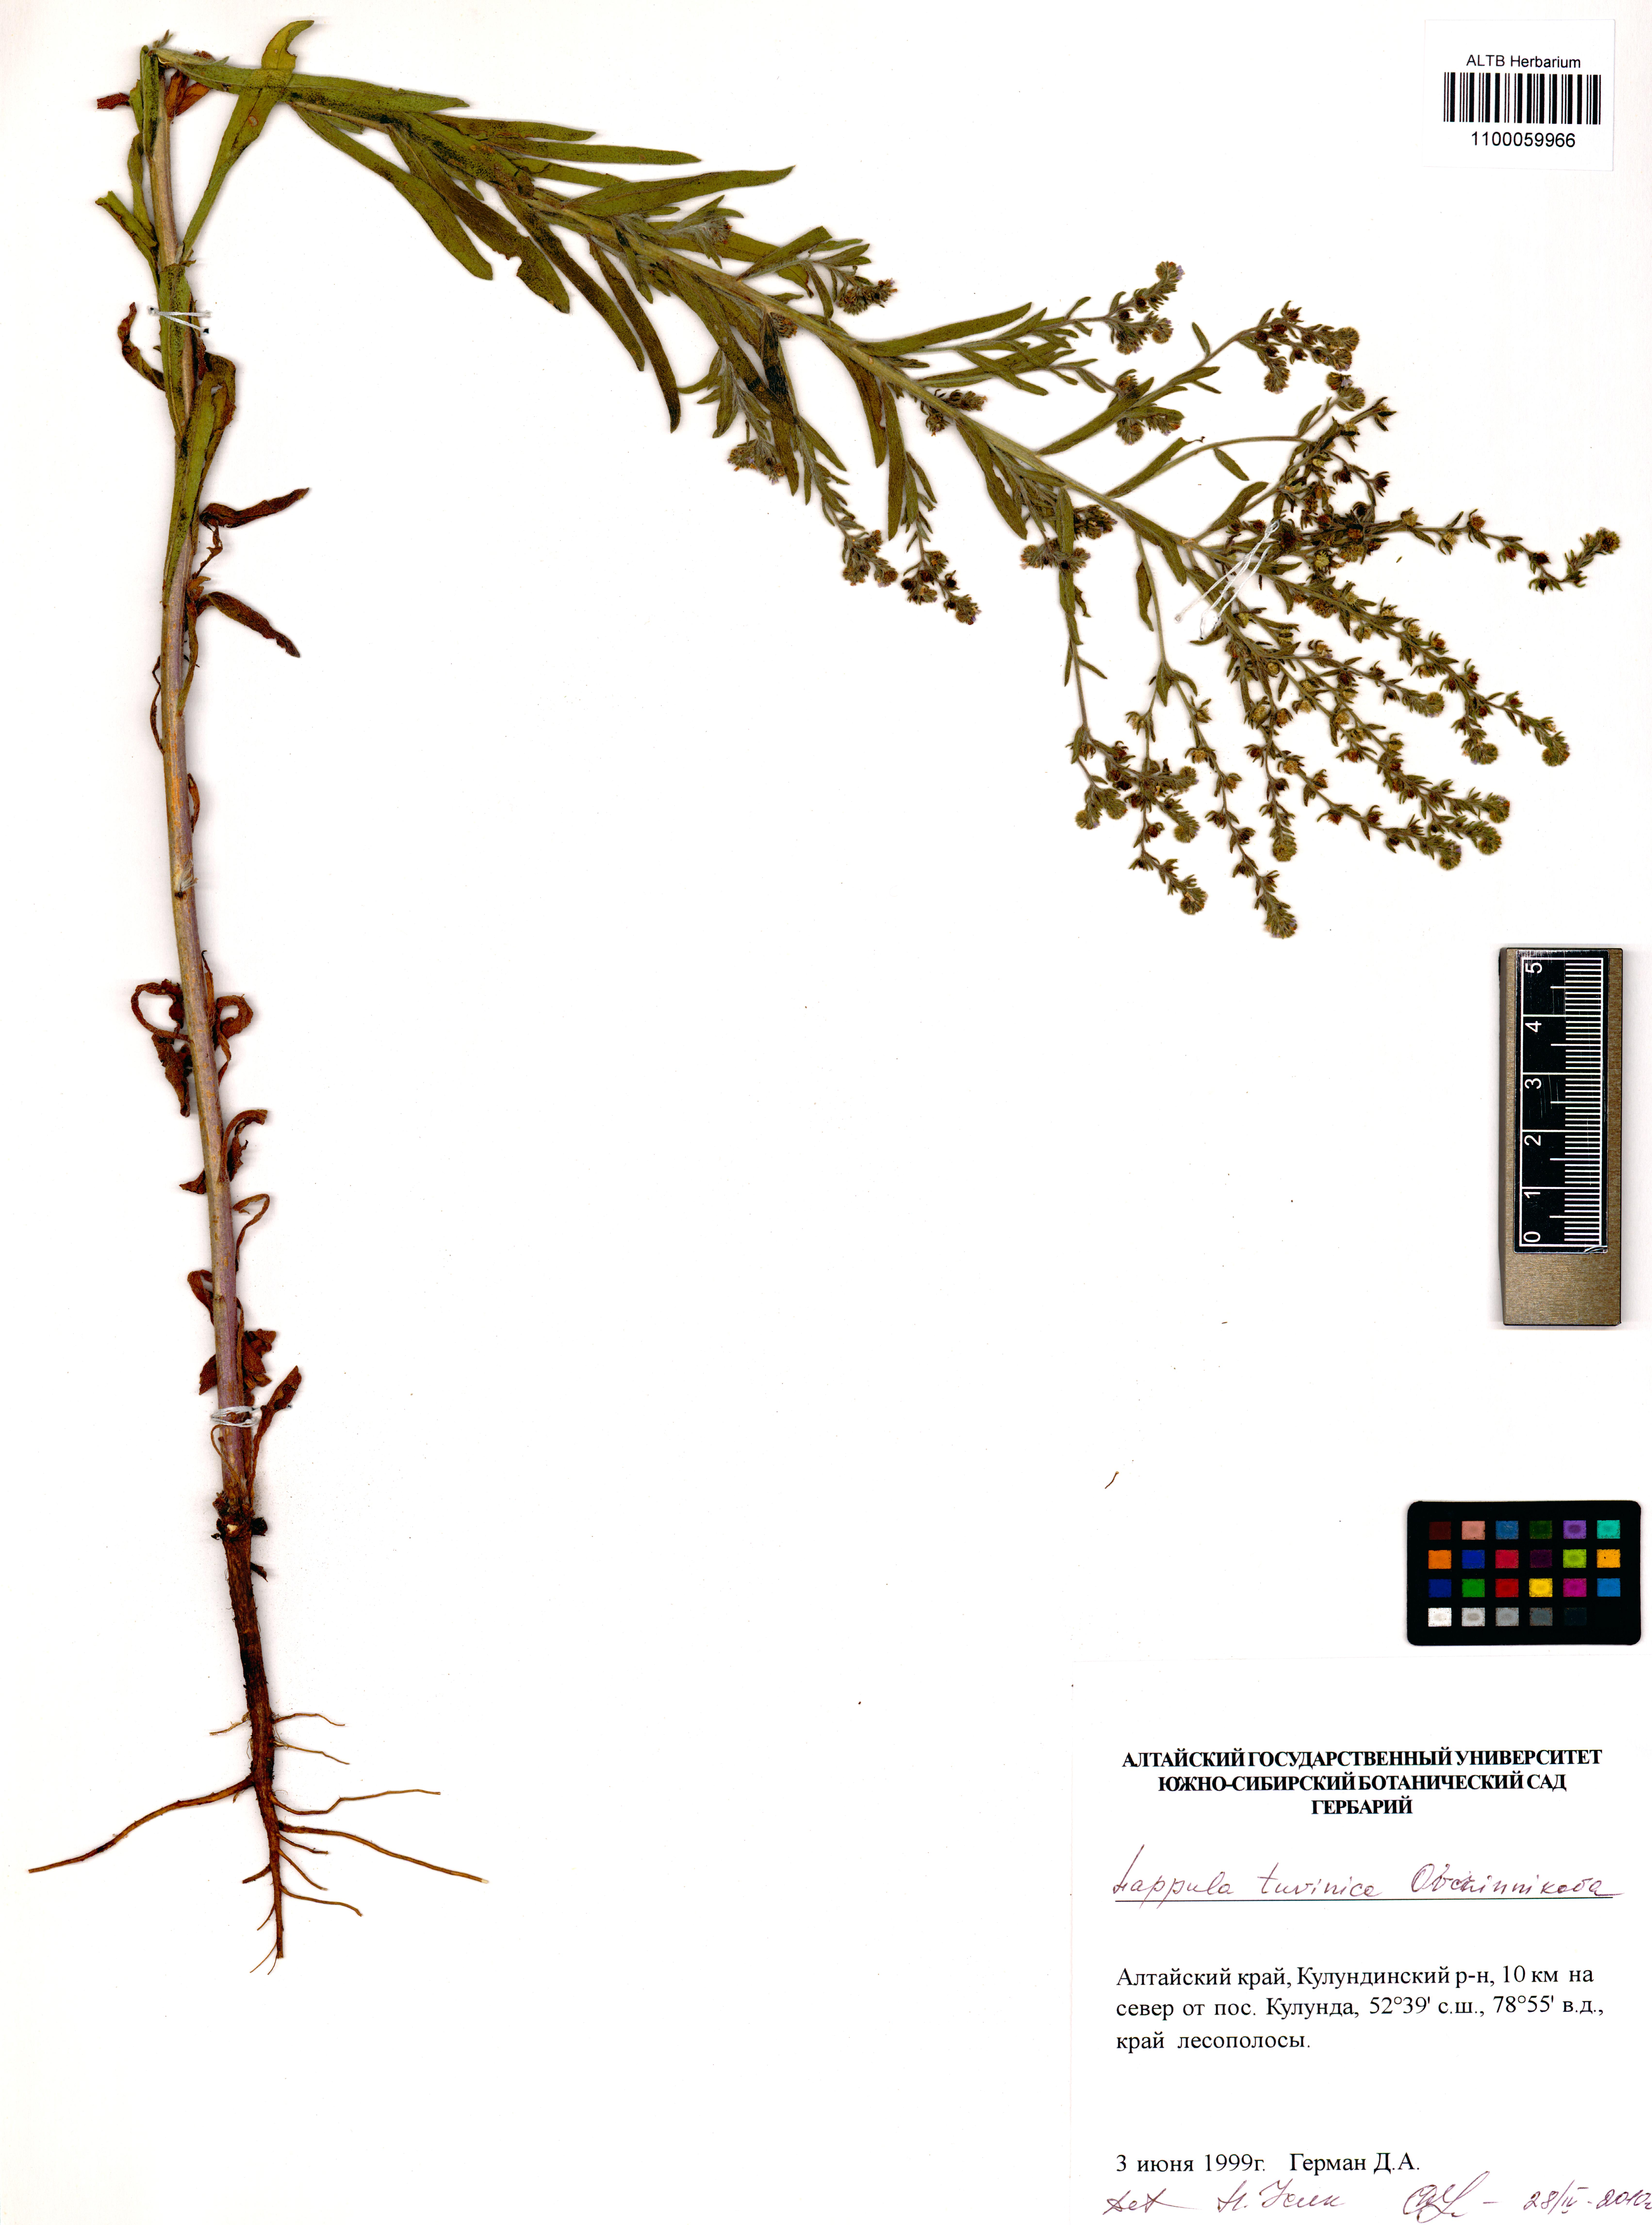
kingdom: Plantae
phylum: Tracheophyta
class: Magnoliopsida
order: Boraginales
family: Boraginaceae
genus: Lappula
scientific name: Lappula tuvinica
